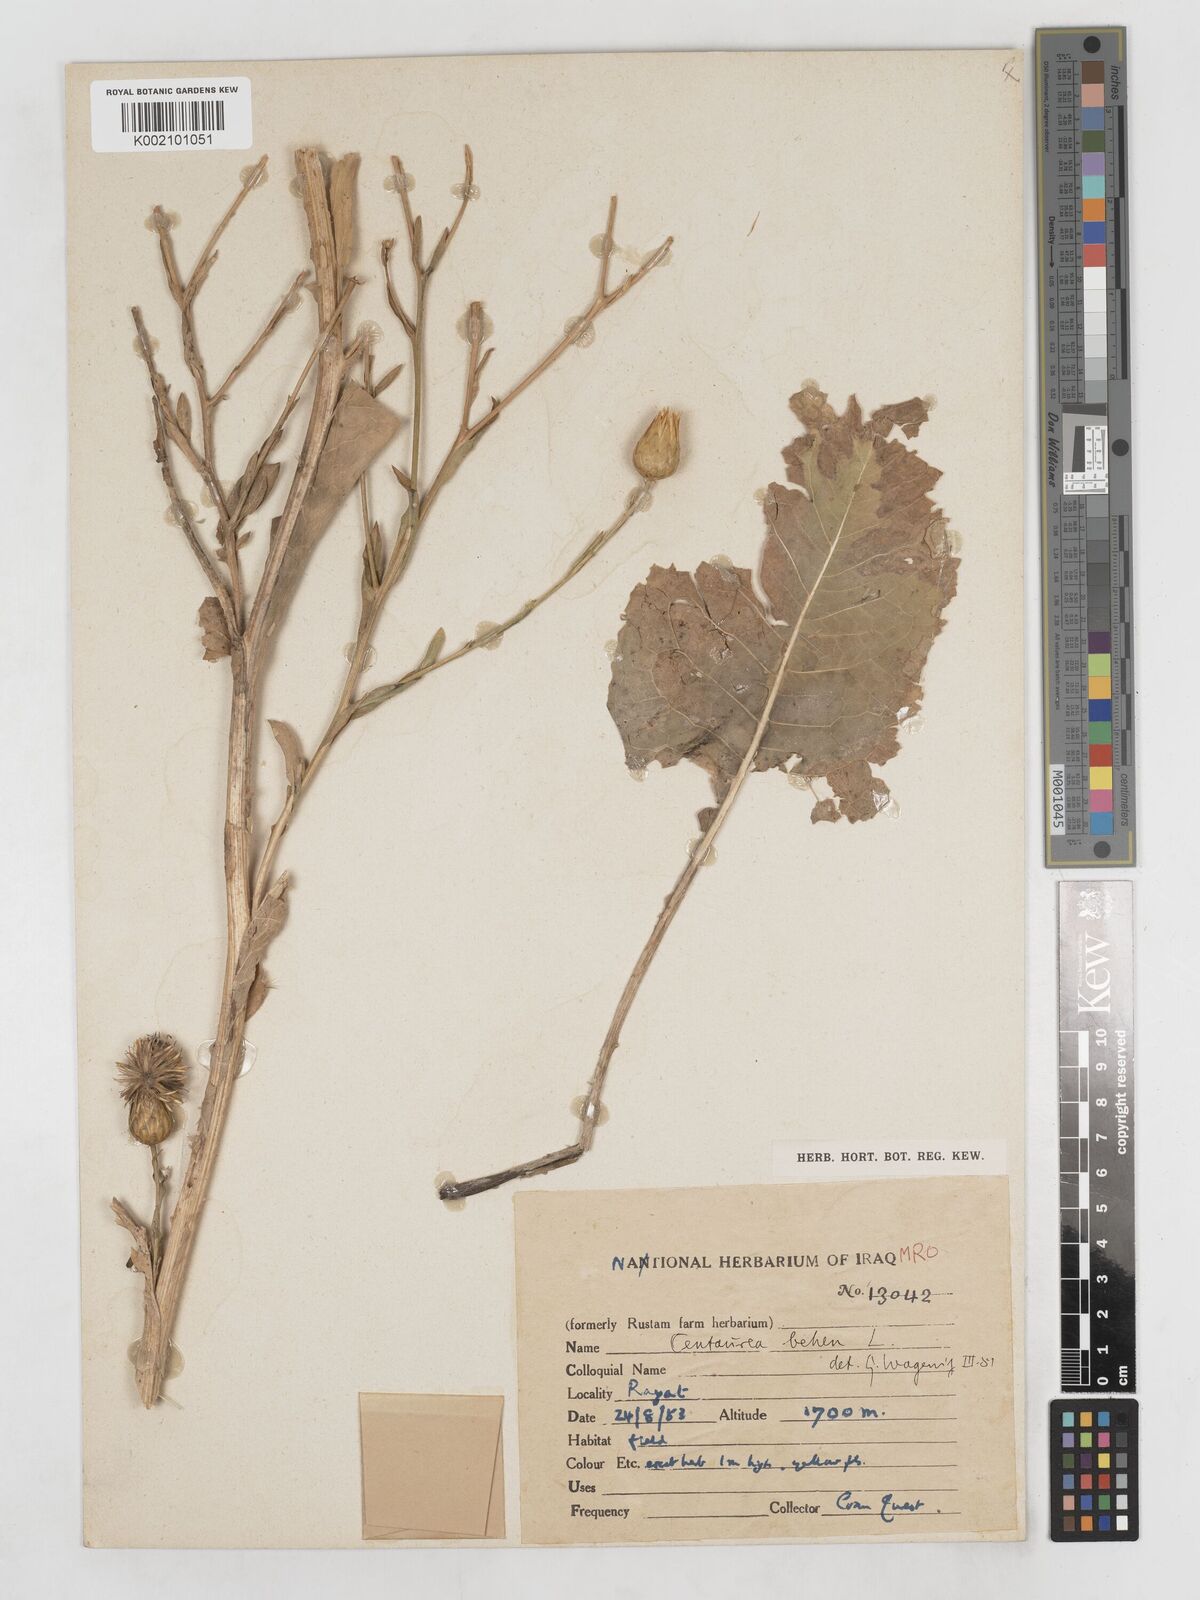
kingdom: Plantae
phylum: Tracheophyta
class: Magnoliopsida
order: Asterales
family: Asteraceae
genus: Centaurea
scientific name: Centaurea behen
